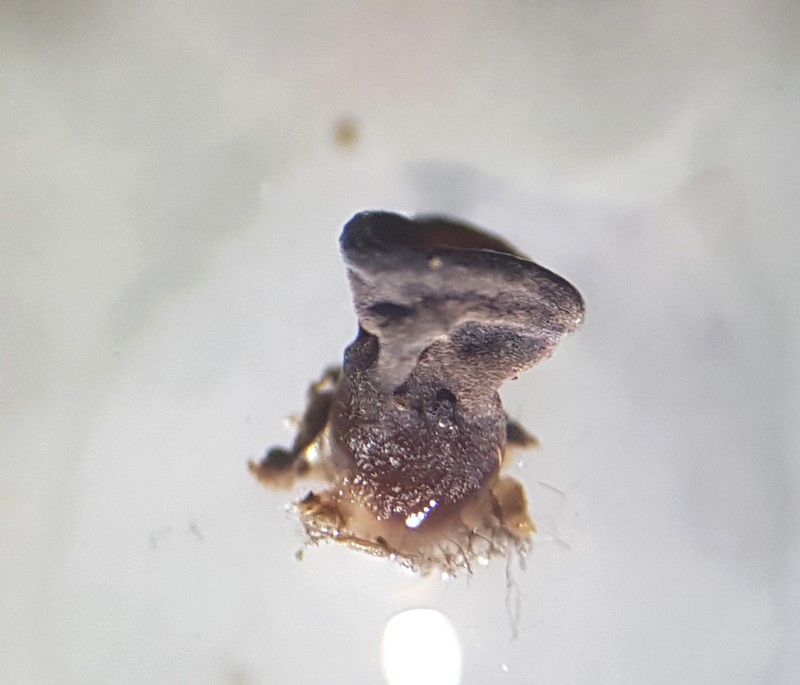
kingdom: Fungi
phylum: Ascomycota
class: Leotiomycetes
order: Helotiales
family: Gelatinodiscaceae
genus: Ascocoryne
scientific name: Ascocoryne
